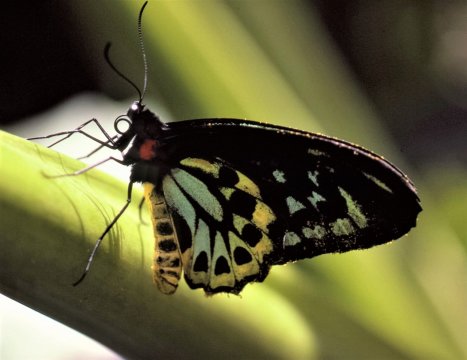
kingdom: Animalia
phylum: Arthropoda
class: Insecta
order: Lepidoptera
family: Papilionidae
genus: Ornithoptera
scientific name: Ornithoptera euphorion
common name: Cairns Birdwing
